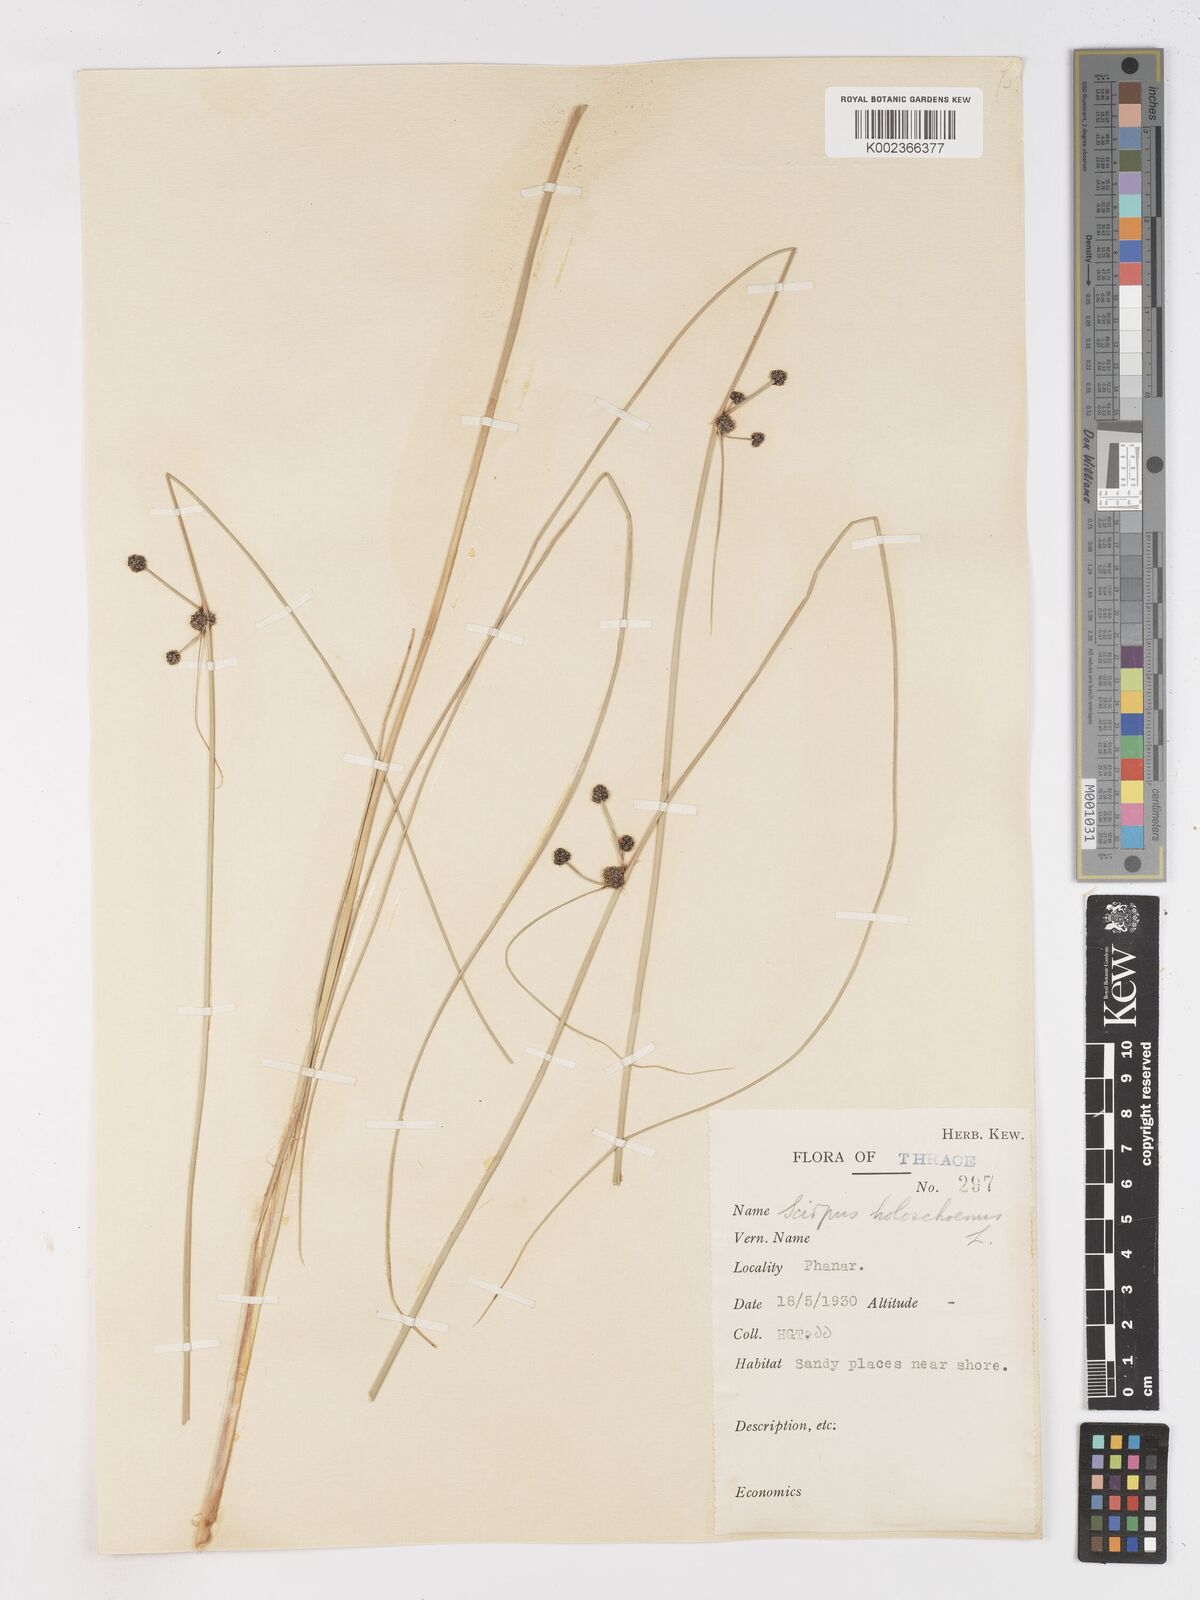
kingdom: Plantae
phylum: Tracheophyta
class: Liliopsida
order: Poales
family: Cyperaceae
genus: Scirpoides
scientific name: Scirpoides holoschoenus
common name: Round-headed club-rush
